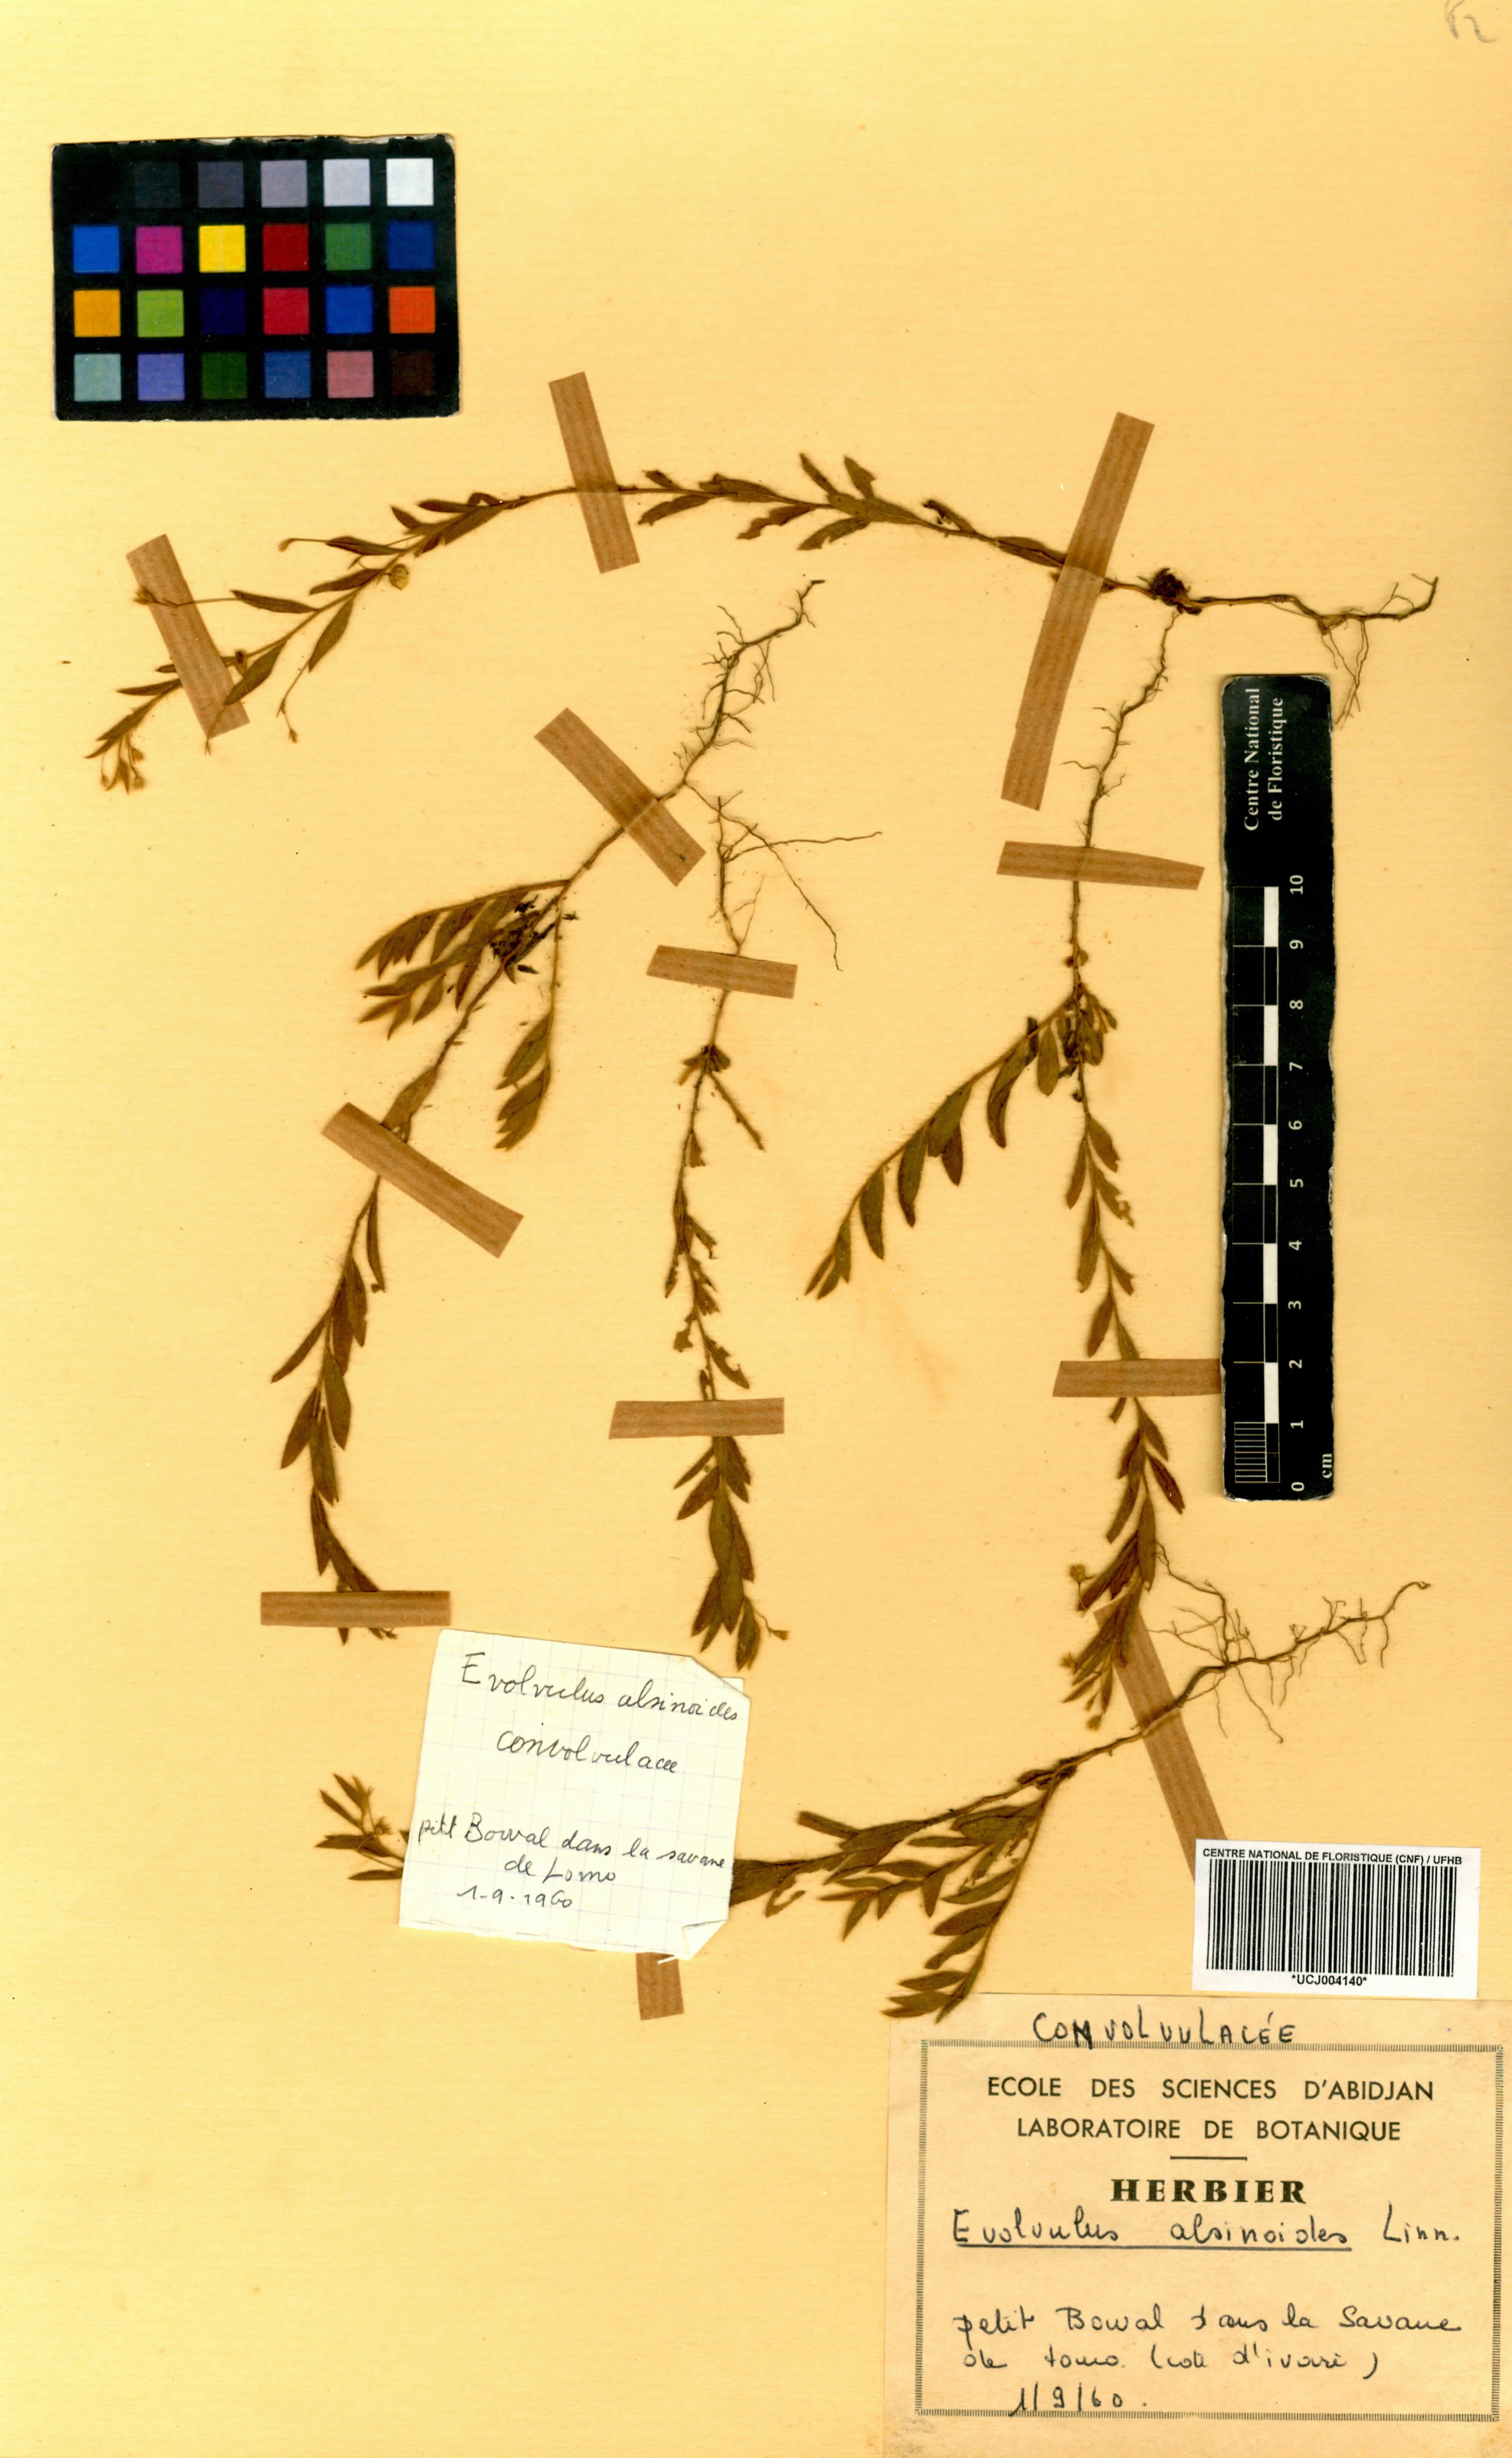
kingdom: Plantae
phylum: Tracheophyta
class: Magnoliopsida
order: Solanales
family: Convolvulaceae
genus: Evolvulus
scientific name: Evolvulus alsinoides
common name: Slender dwarf morning-glory
